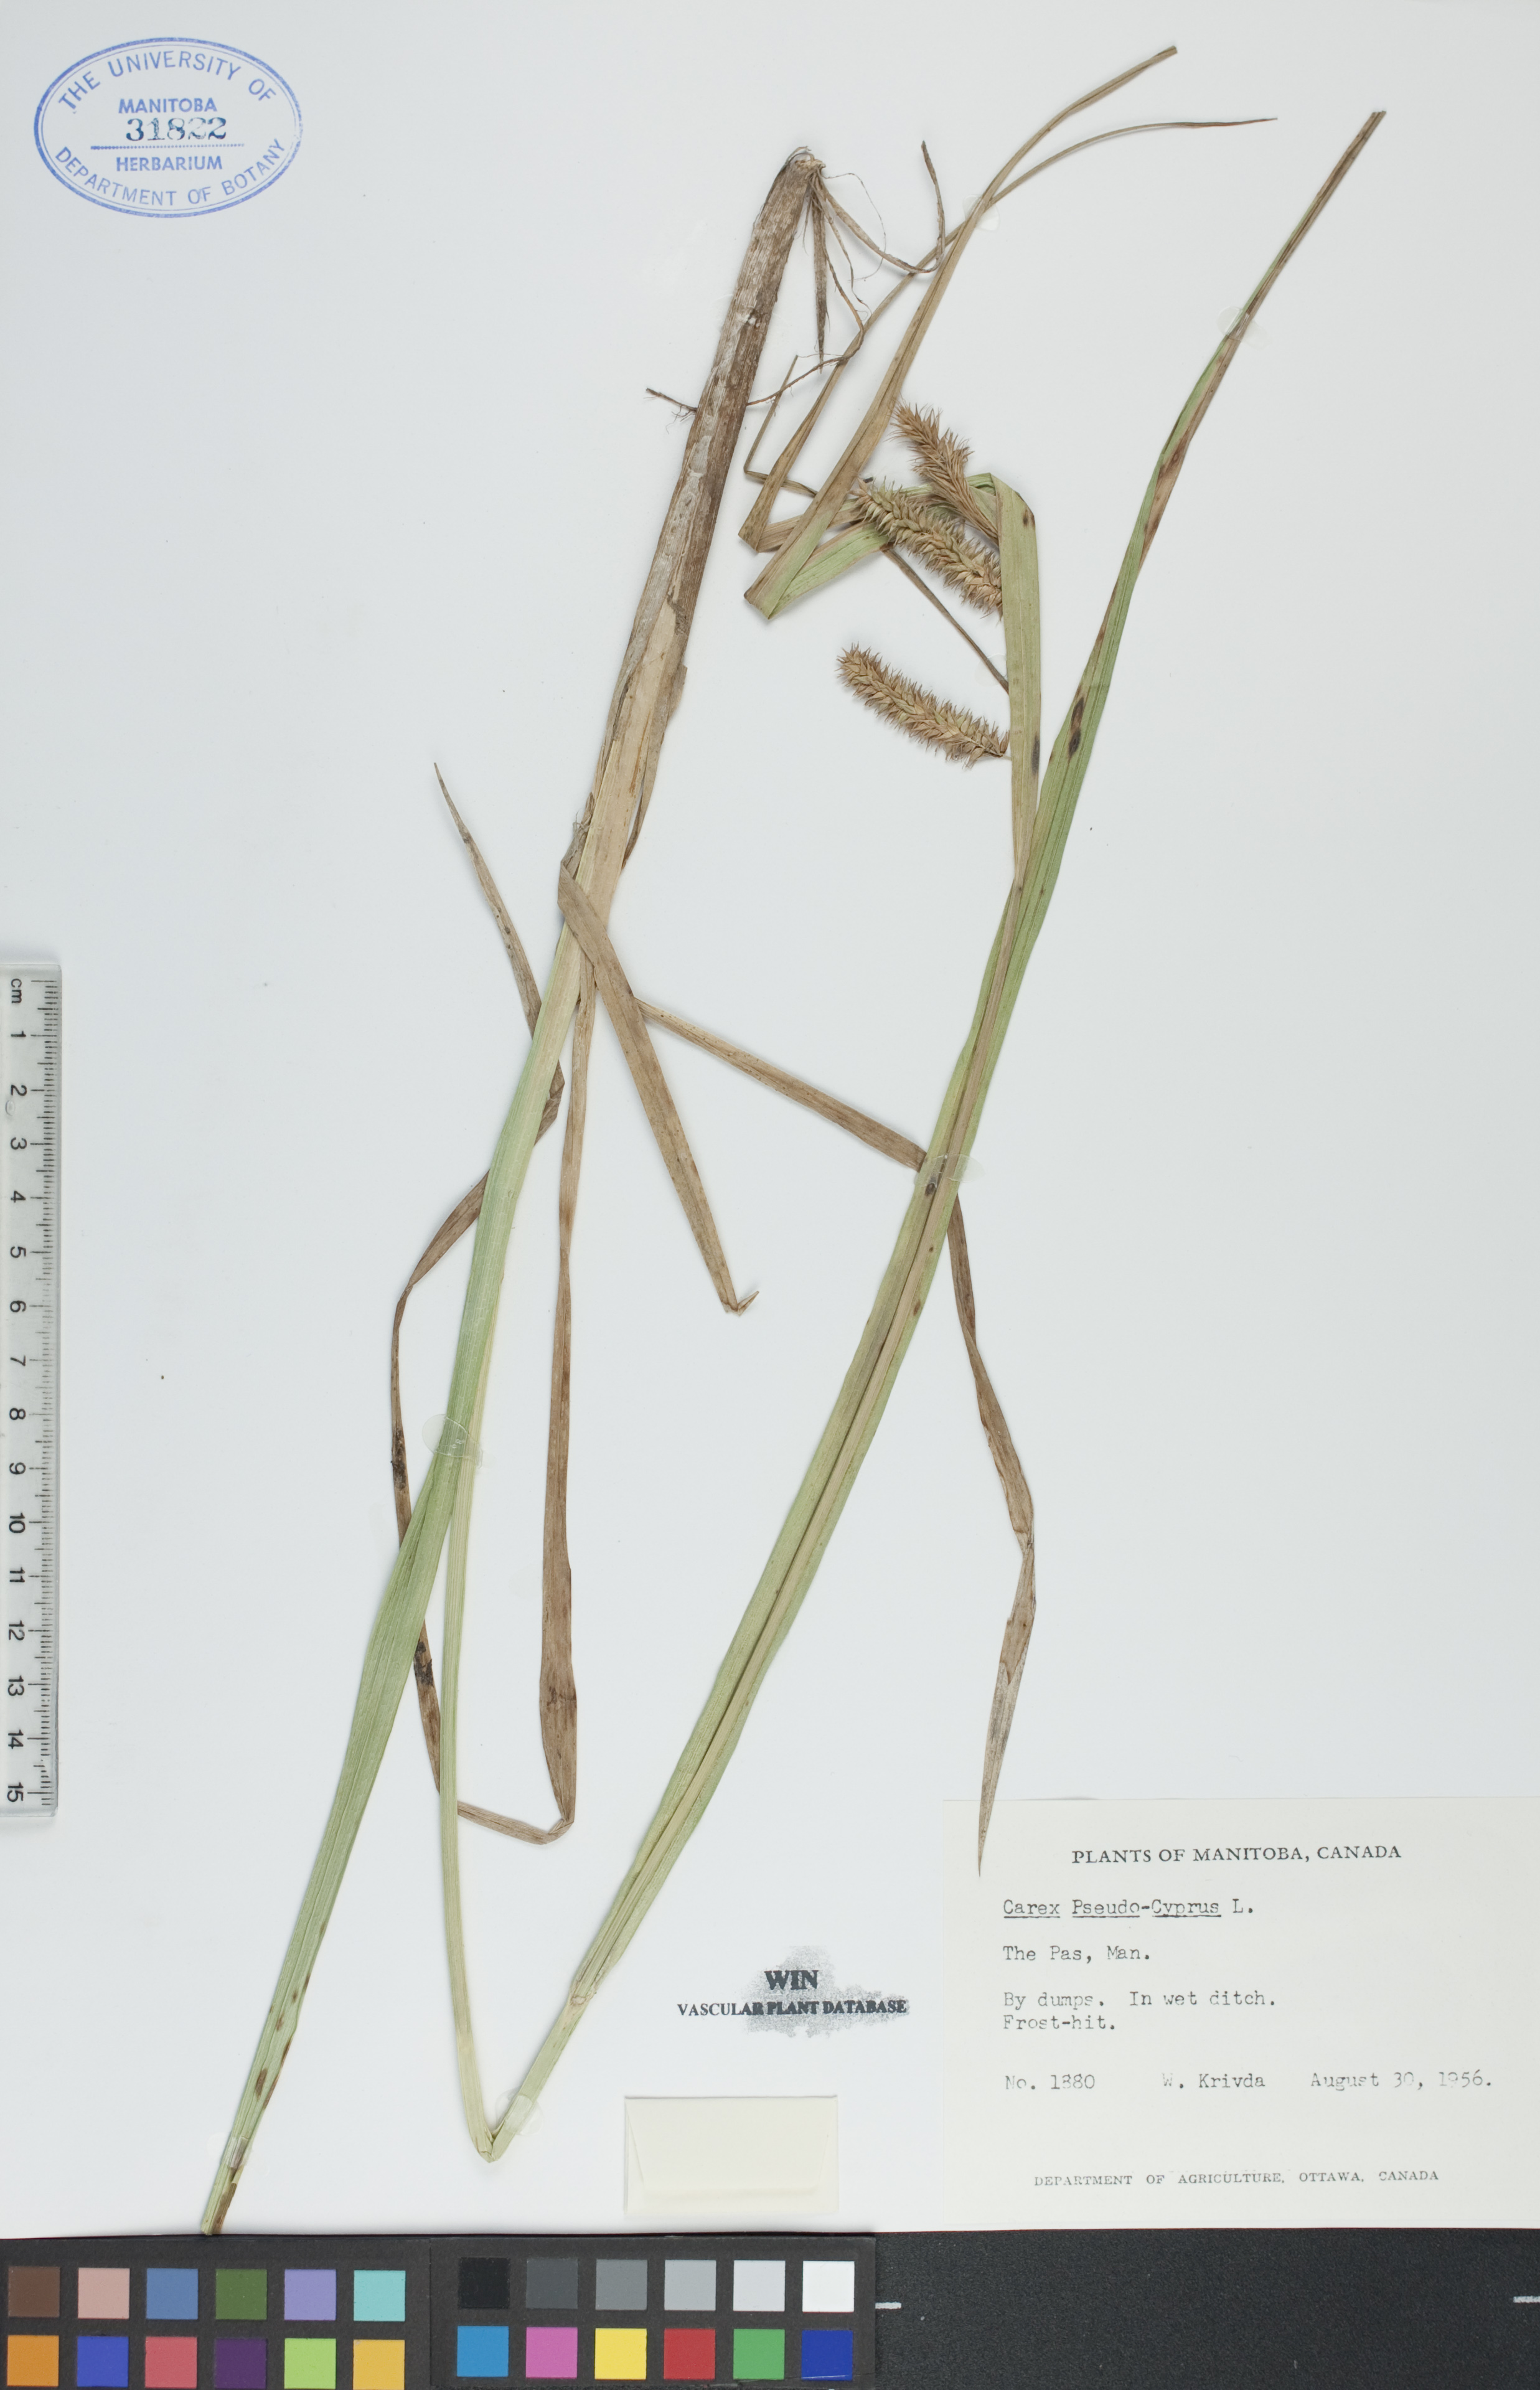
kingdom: Plantae
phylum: Tracheophyta
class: Liliopsida
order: Poales
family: Cyperaceae
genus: Carex
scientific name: Carex pseudocyperus
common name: Cyperus sedge
